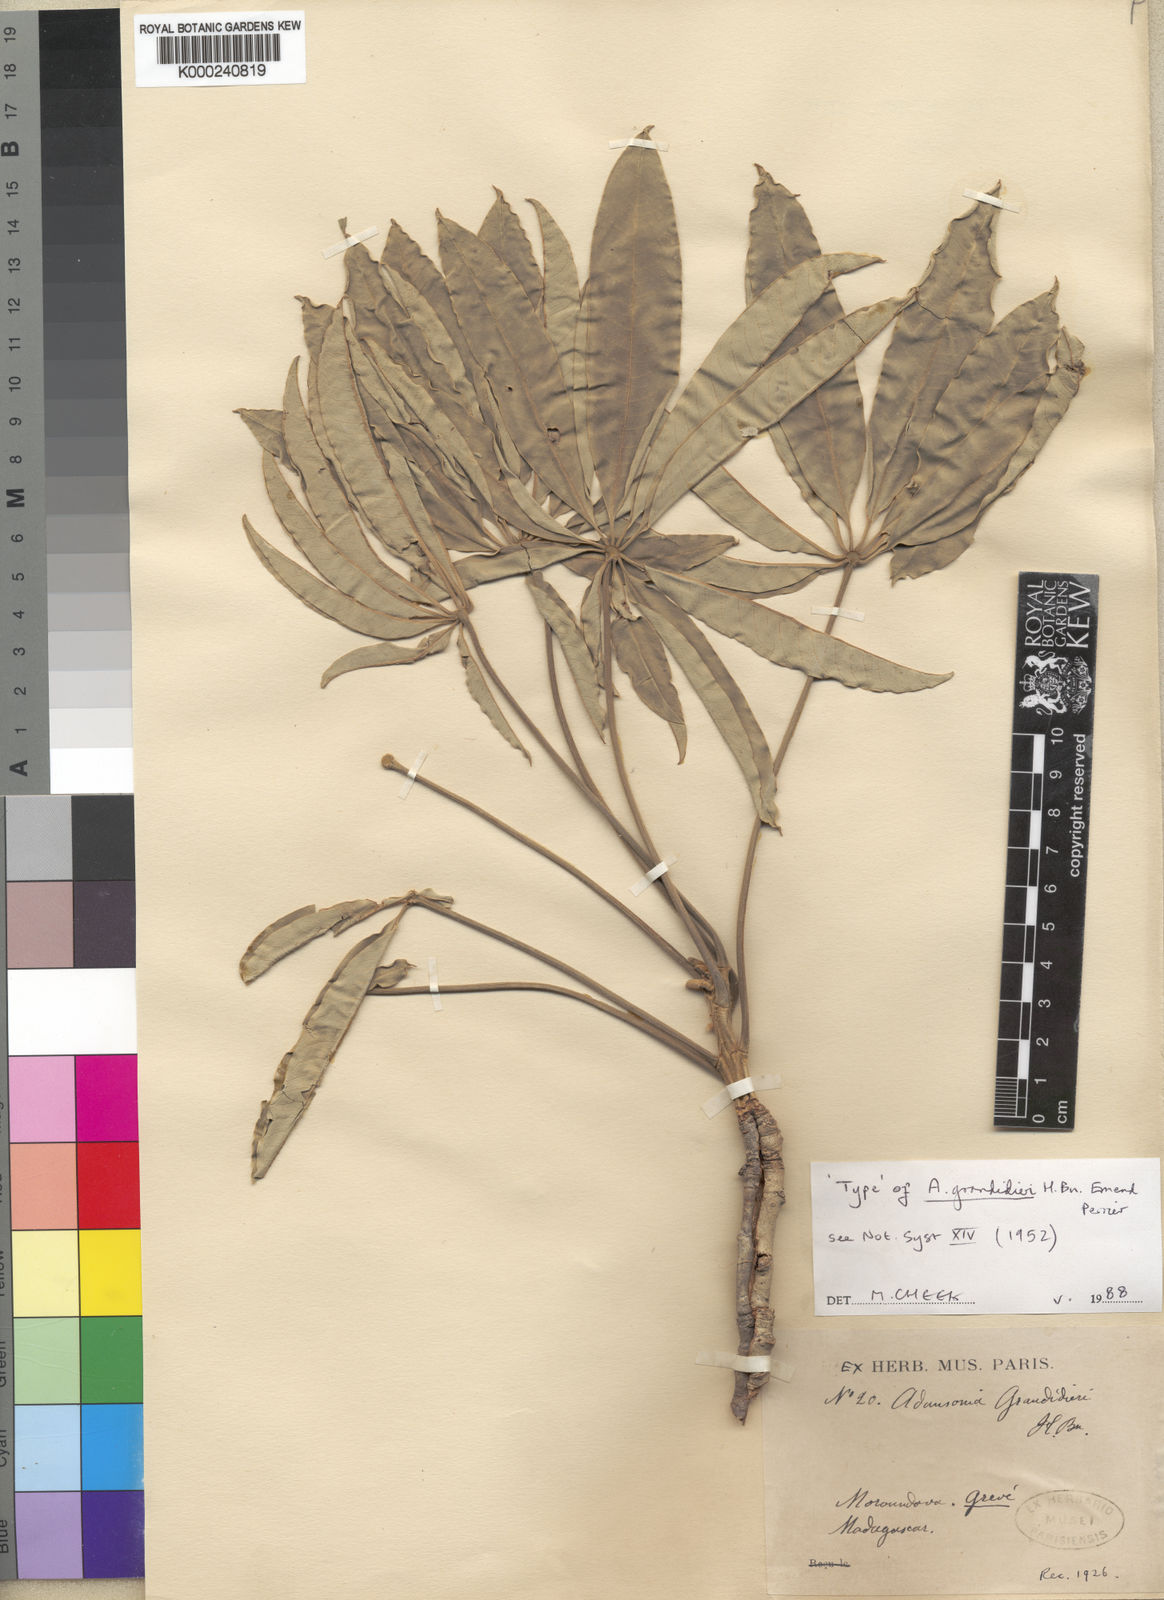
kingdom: Plantae
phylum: Tracheophyta
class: Magnoliopsida
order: Malvales
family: Malvaceae
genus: Adansonia
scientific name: Adansonia grandidieri
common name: Grandidier's baobab
